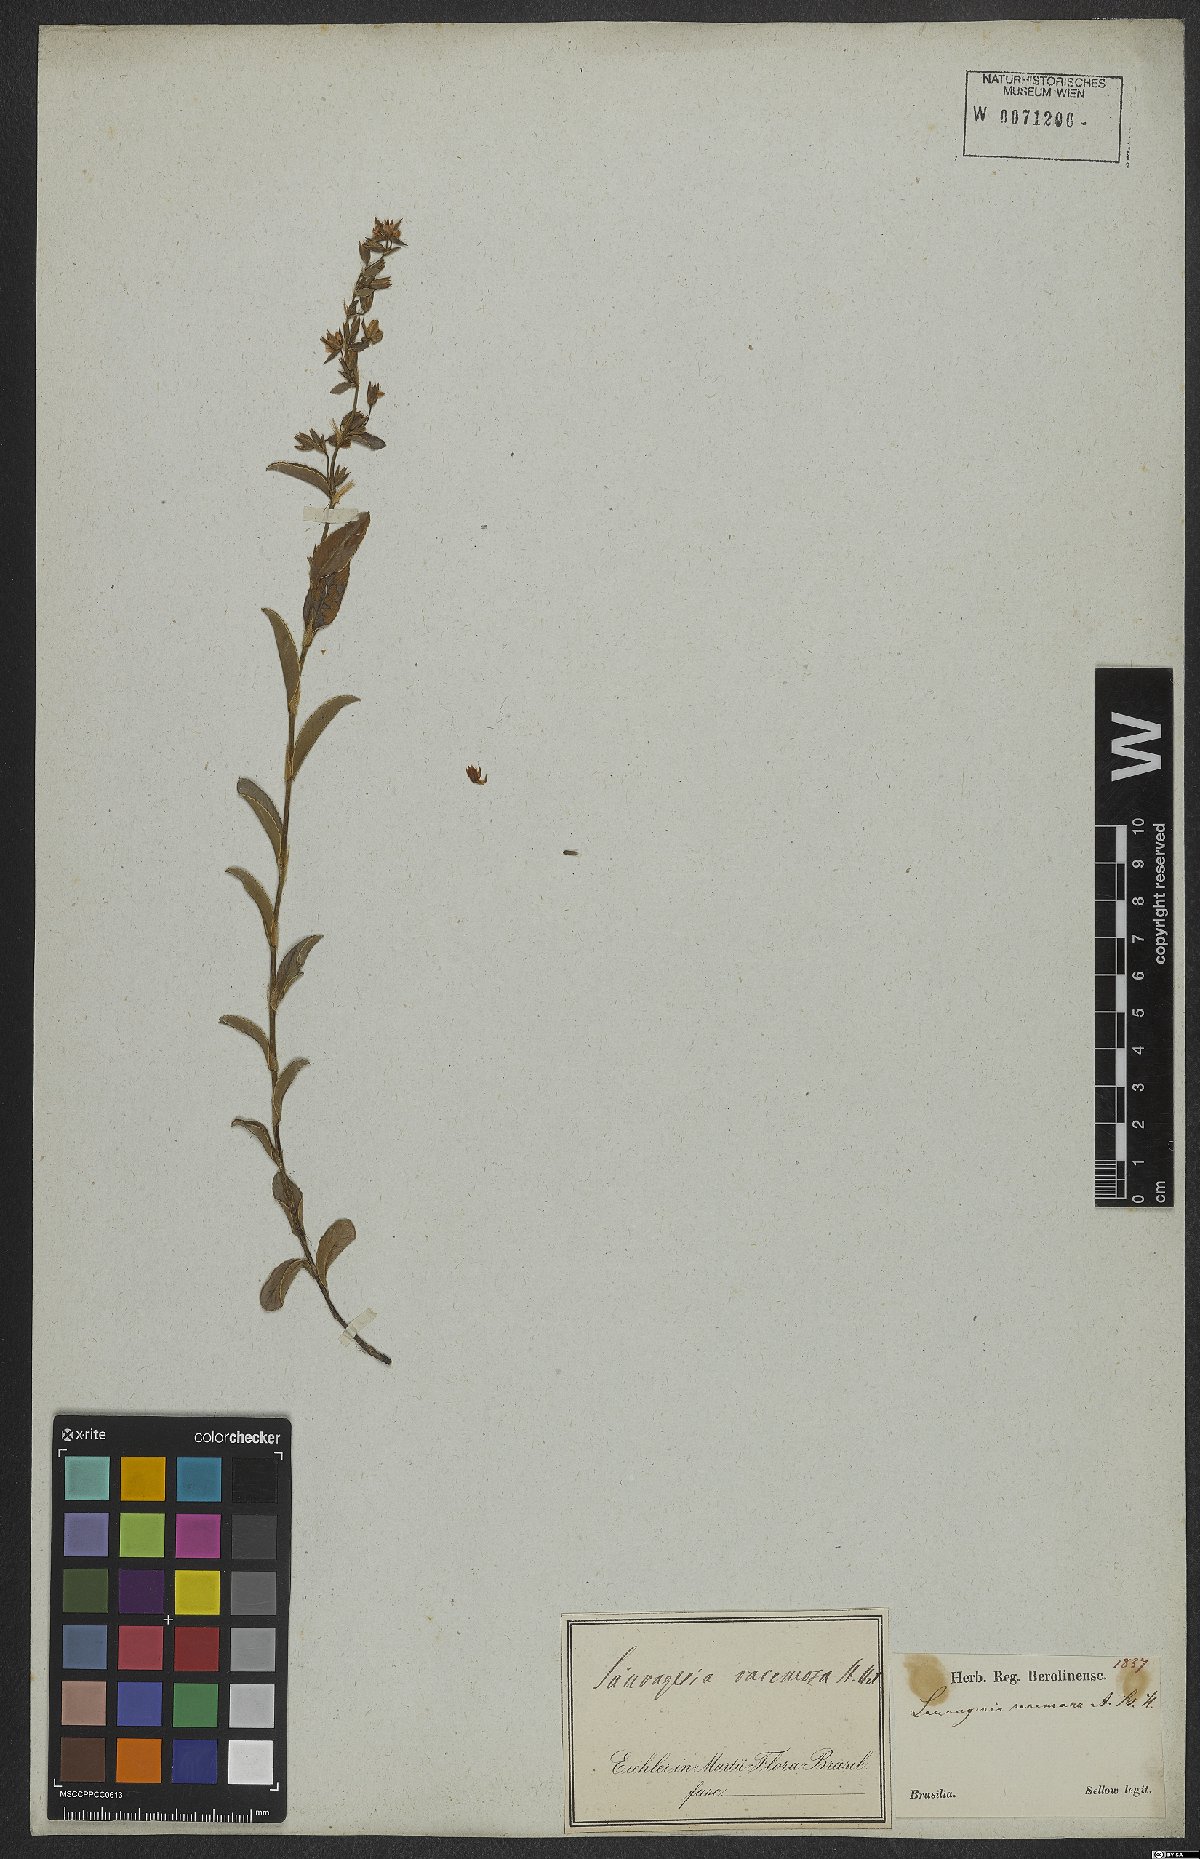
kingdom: Plantae
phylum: Tracheophyta
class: Magnoliopsida
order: Malpighiales
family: Ochnaceae
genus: Sauvagesia
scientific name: Sauvagesia racemosa
